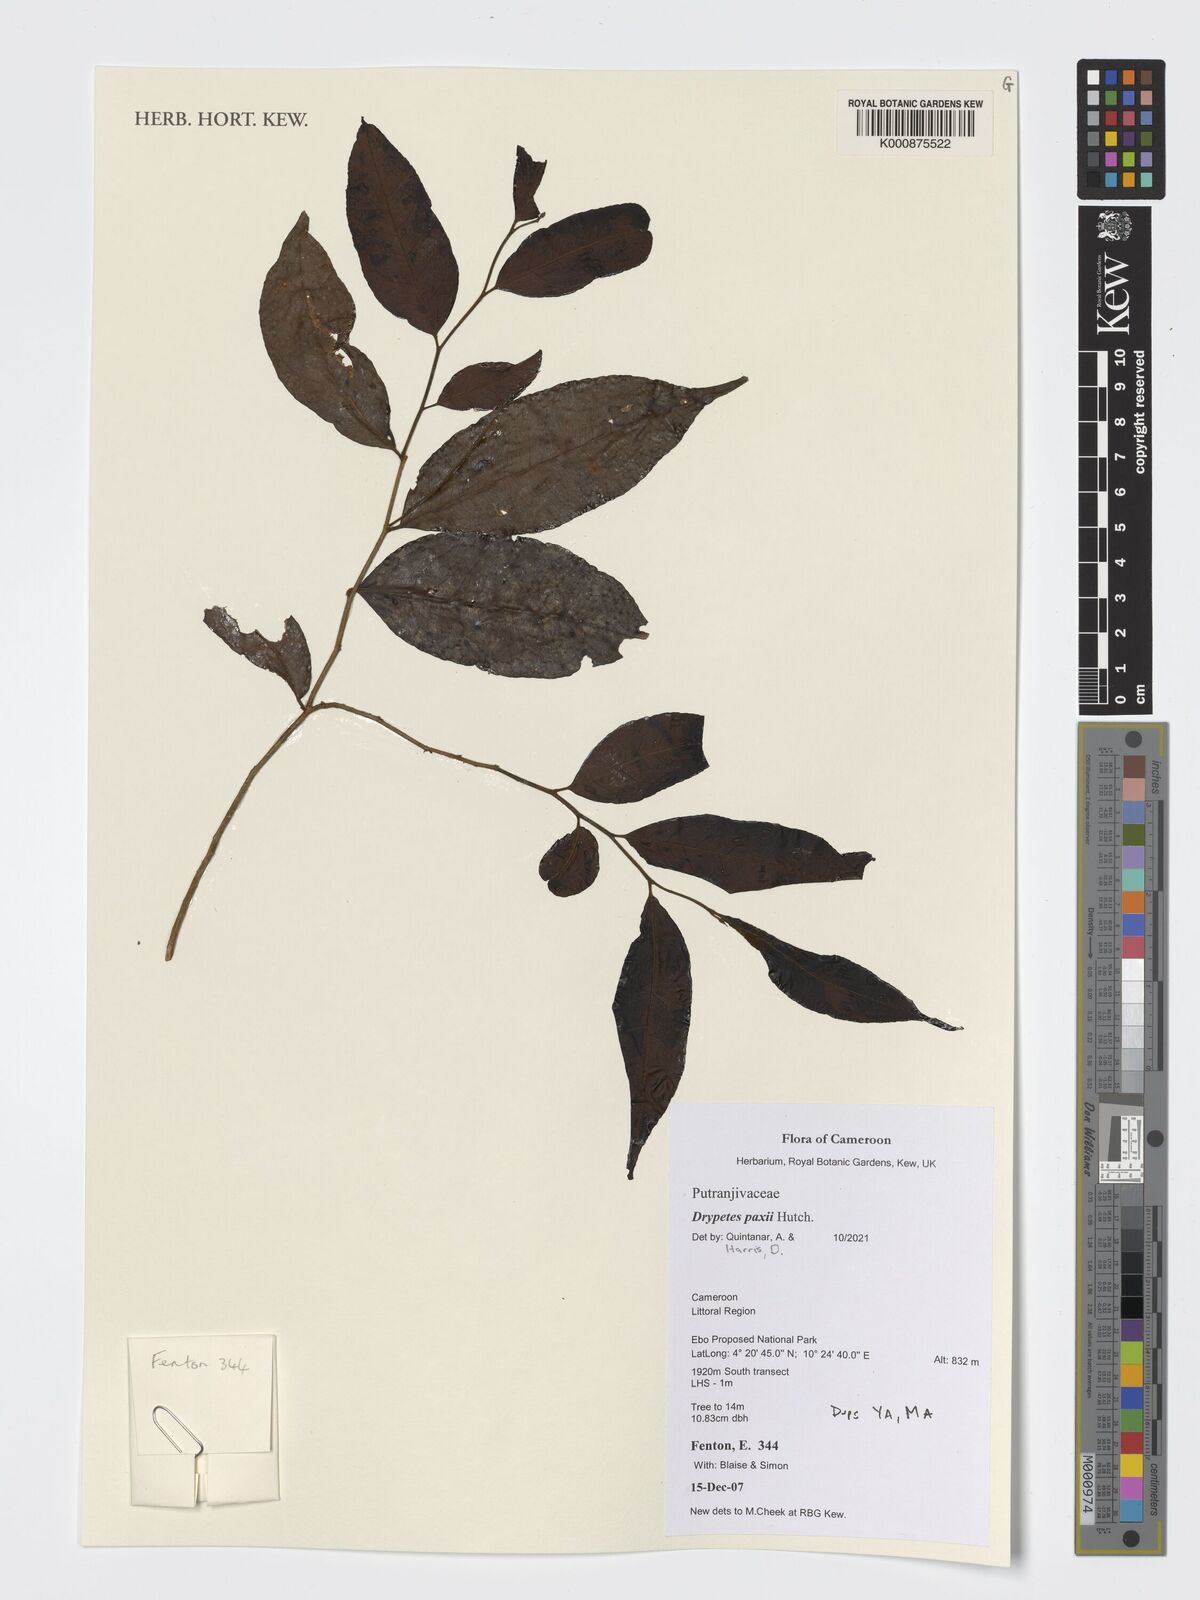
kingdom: Plantae
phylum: Tracheophyta
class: Magnoliopsida
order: Malpighiales
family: Putranjivaceae
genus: Drypetes
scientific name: Drypetes paxii
